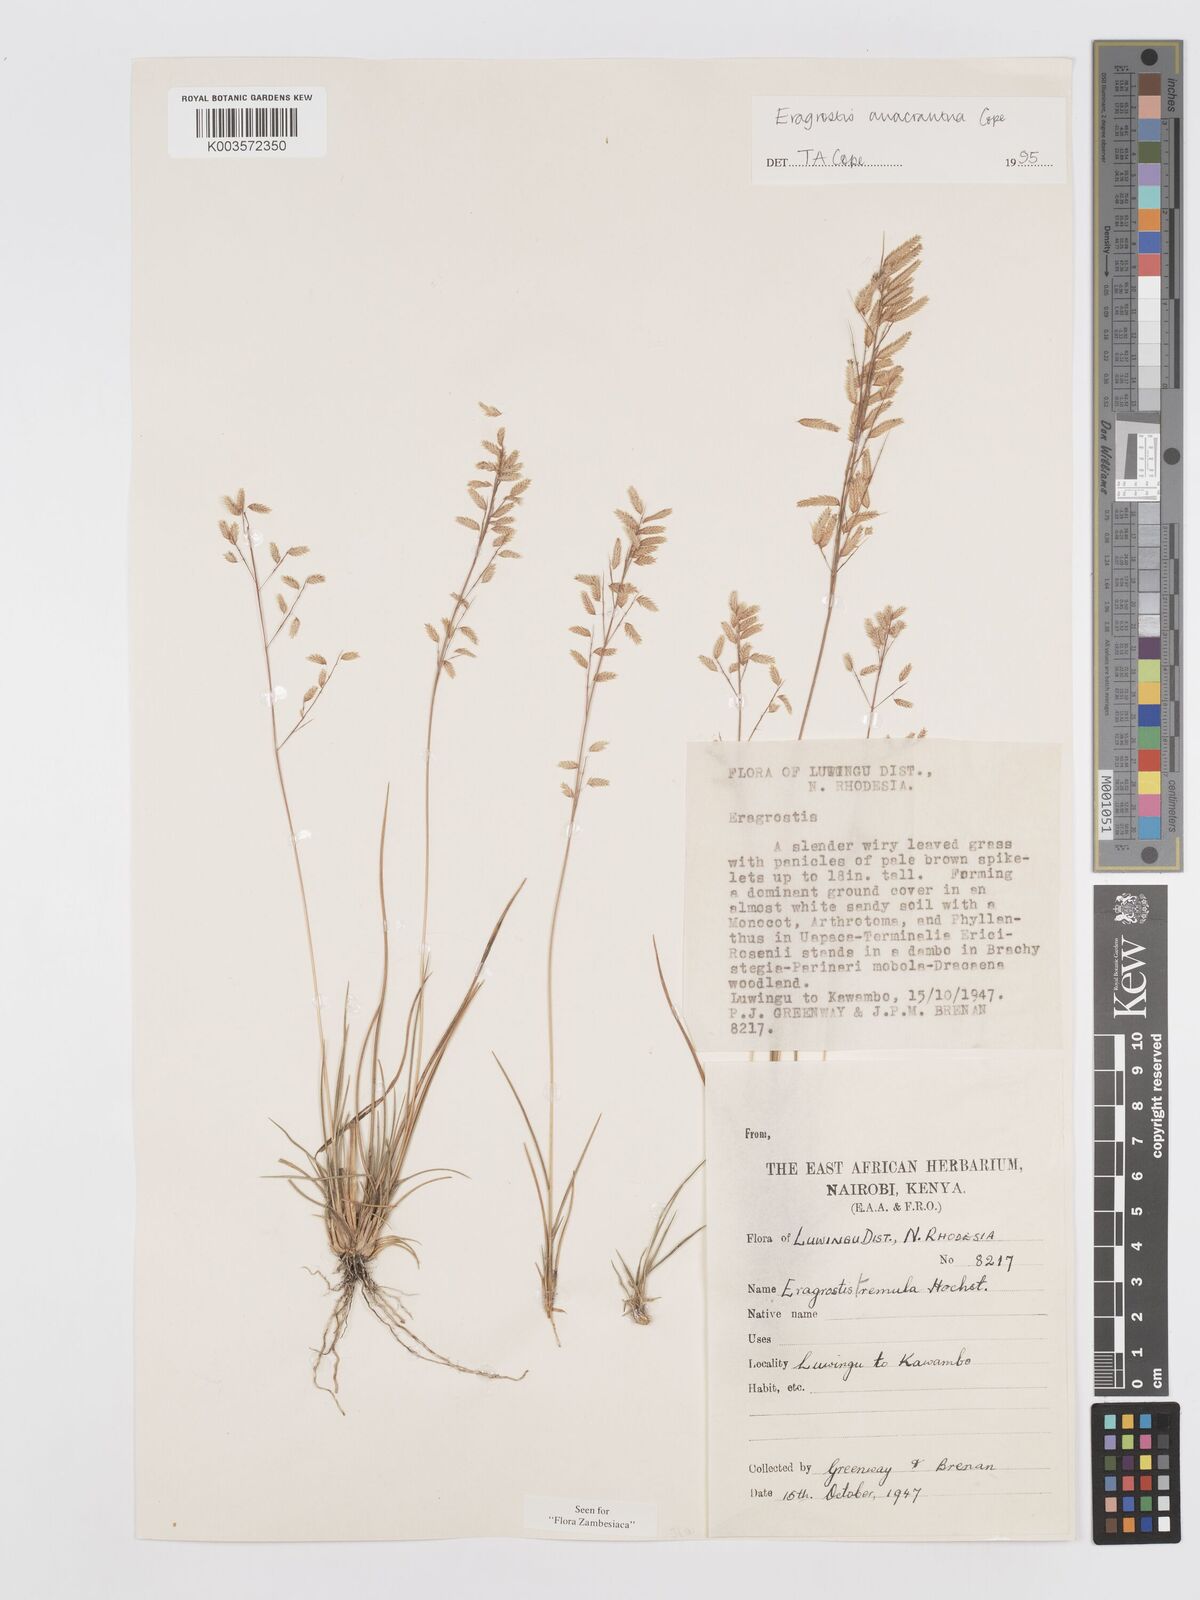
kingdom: Plantae
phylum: Tracheophyta
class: Liliopsida
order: Poales
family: Poaceae
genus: Eragrostis
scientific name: Eragrostis anacrantha
